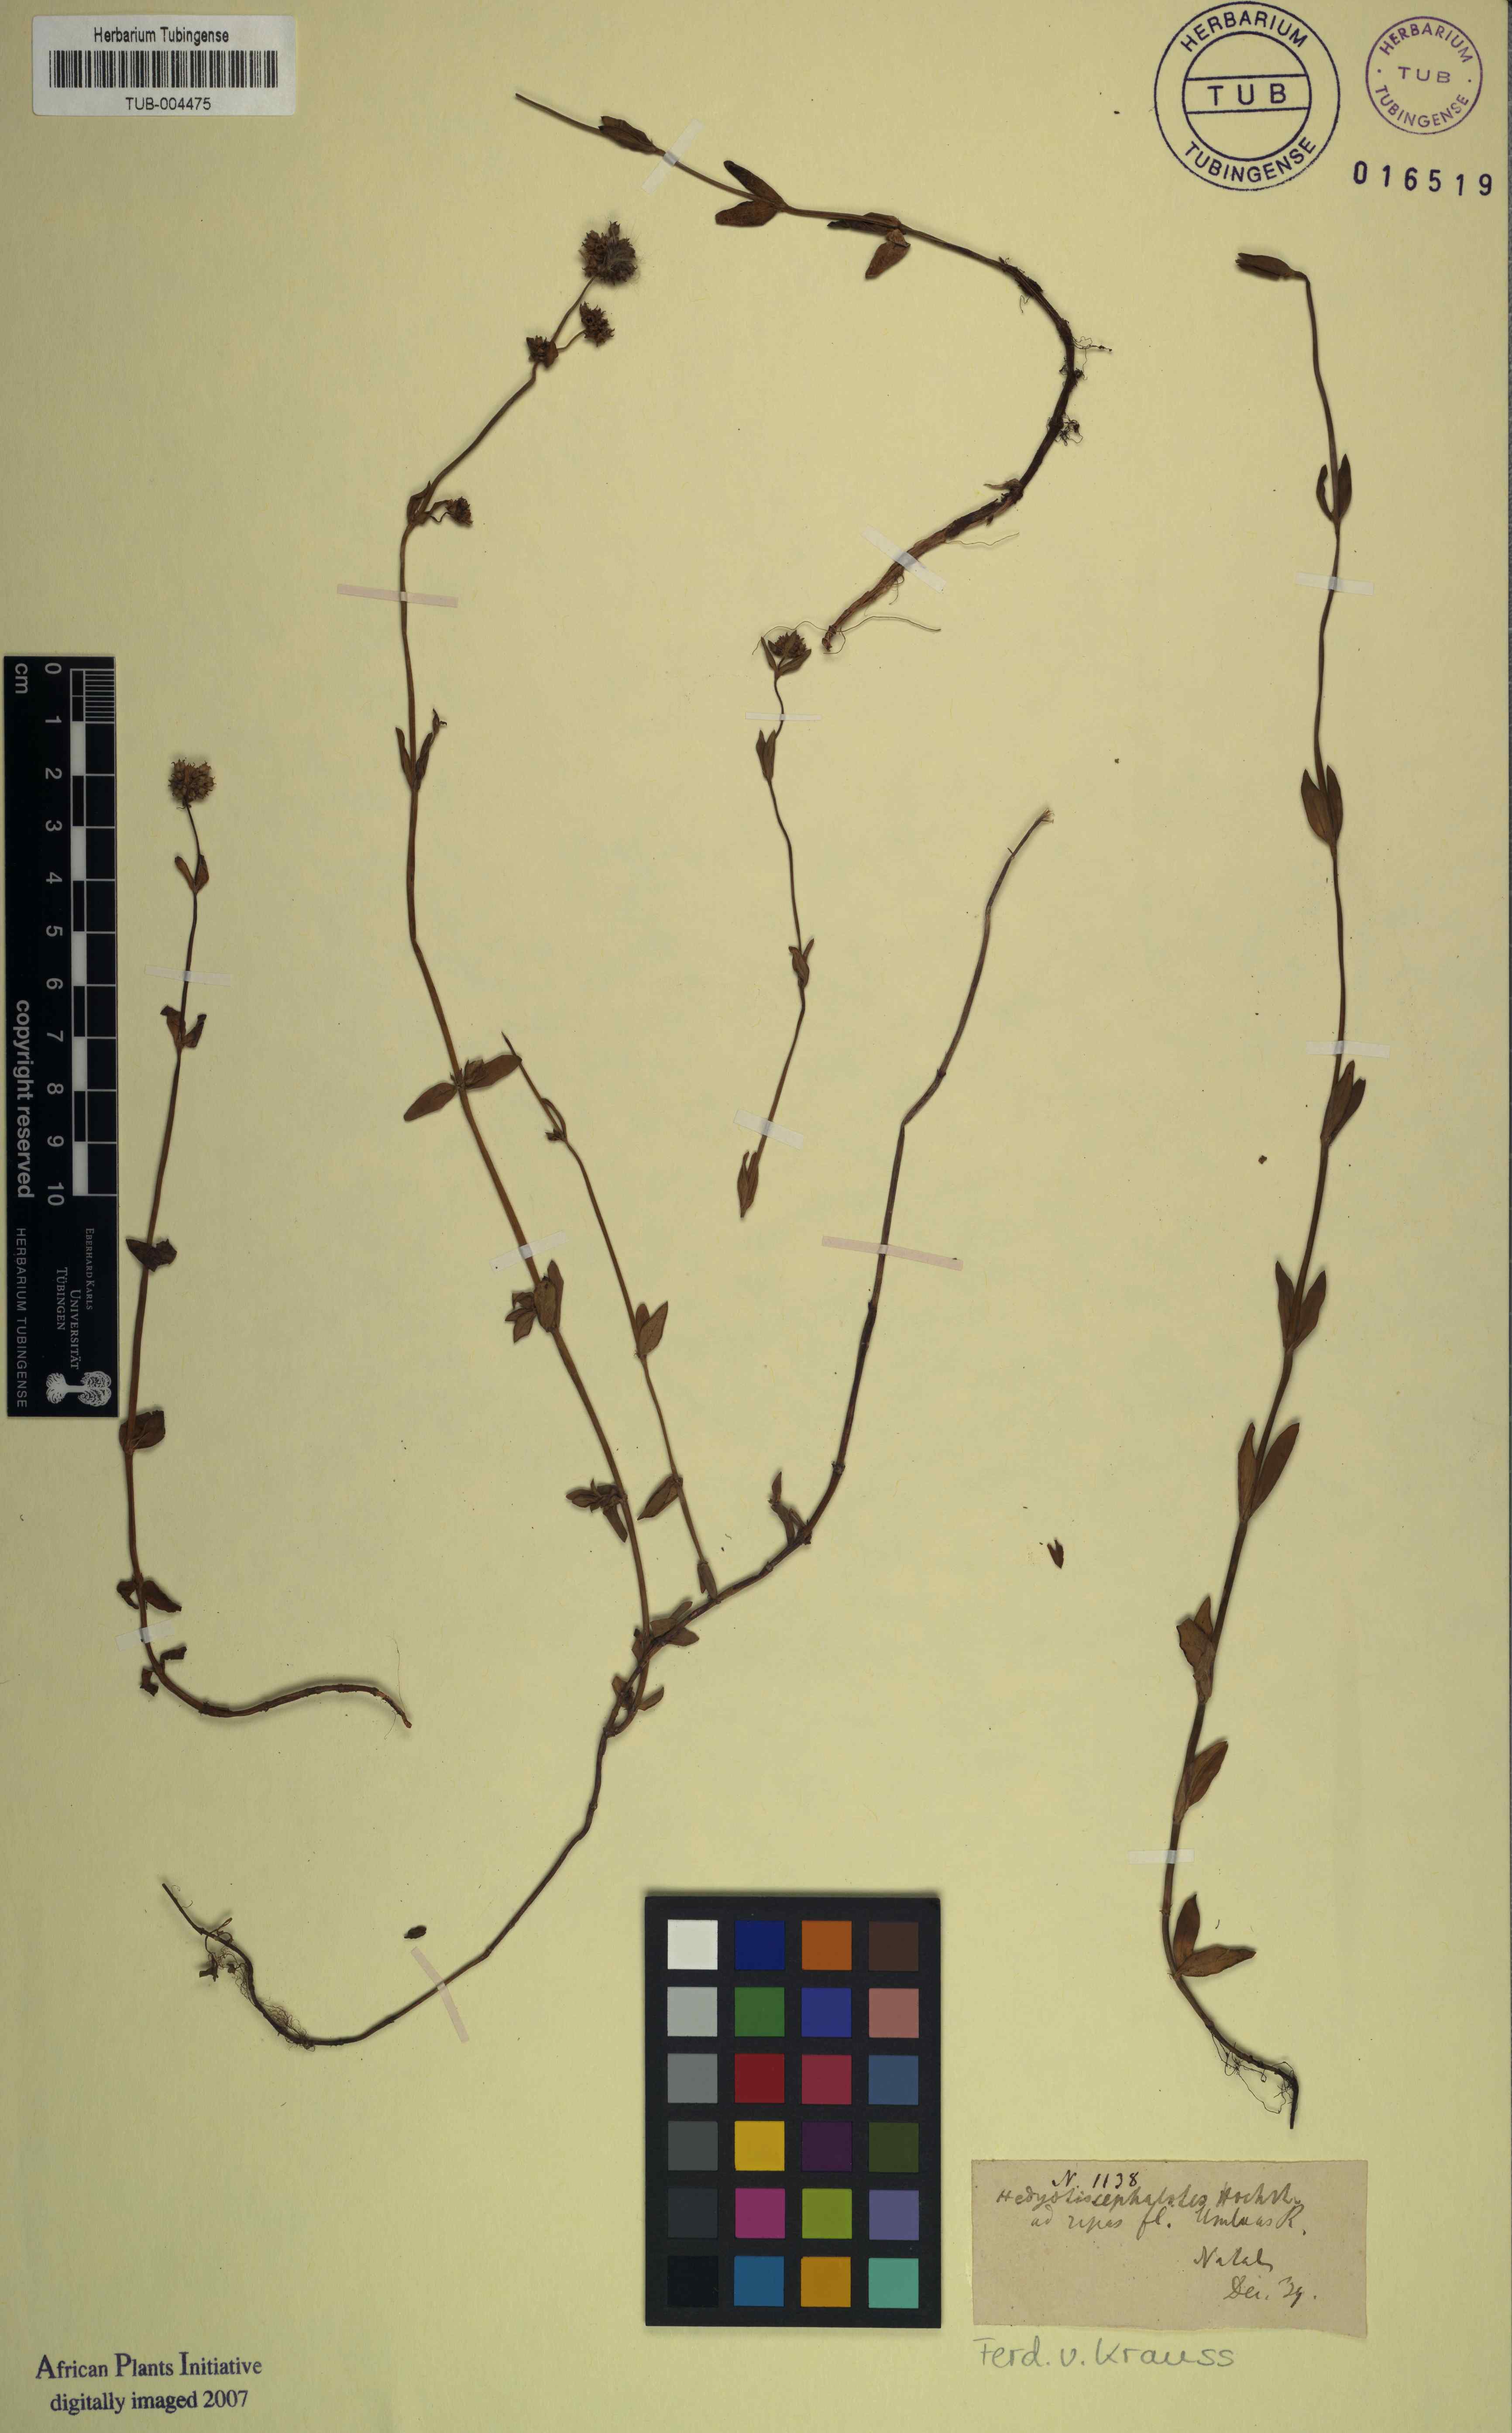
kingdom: Plantae
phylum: Tracheophyta
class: Magnoliopsida
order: Gentianales
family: Rubiaceae
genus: Edrastima
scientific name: Edrastima cephalotes
